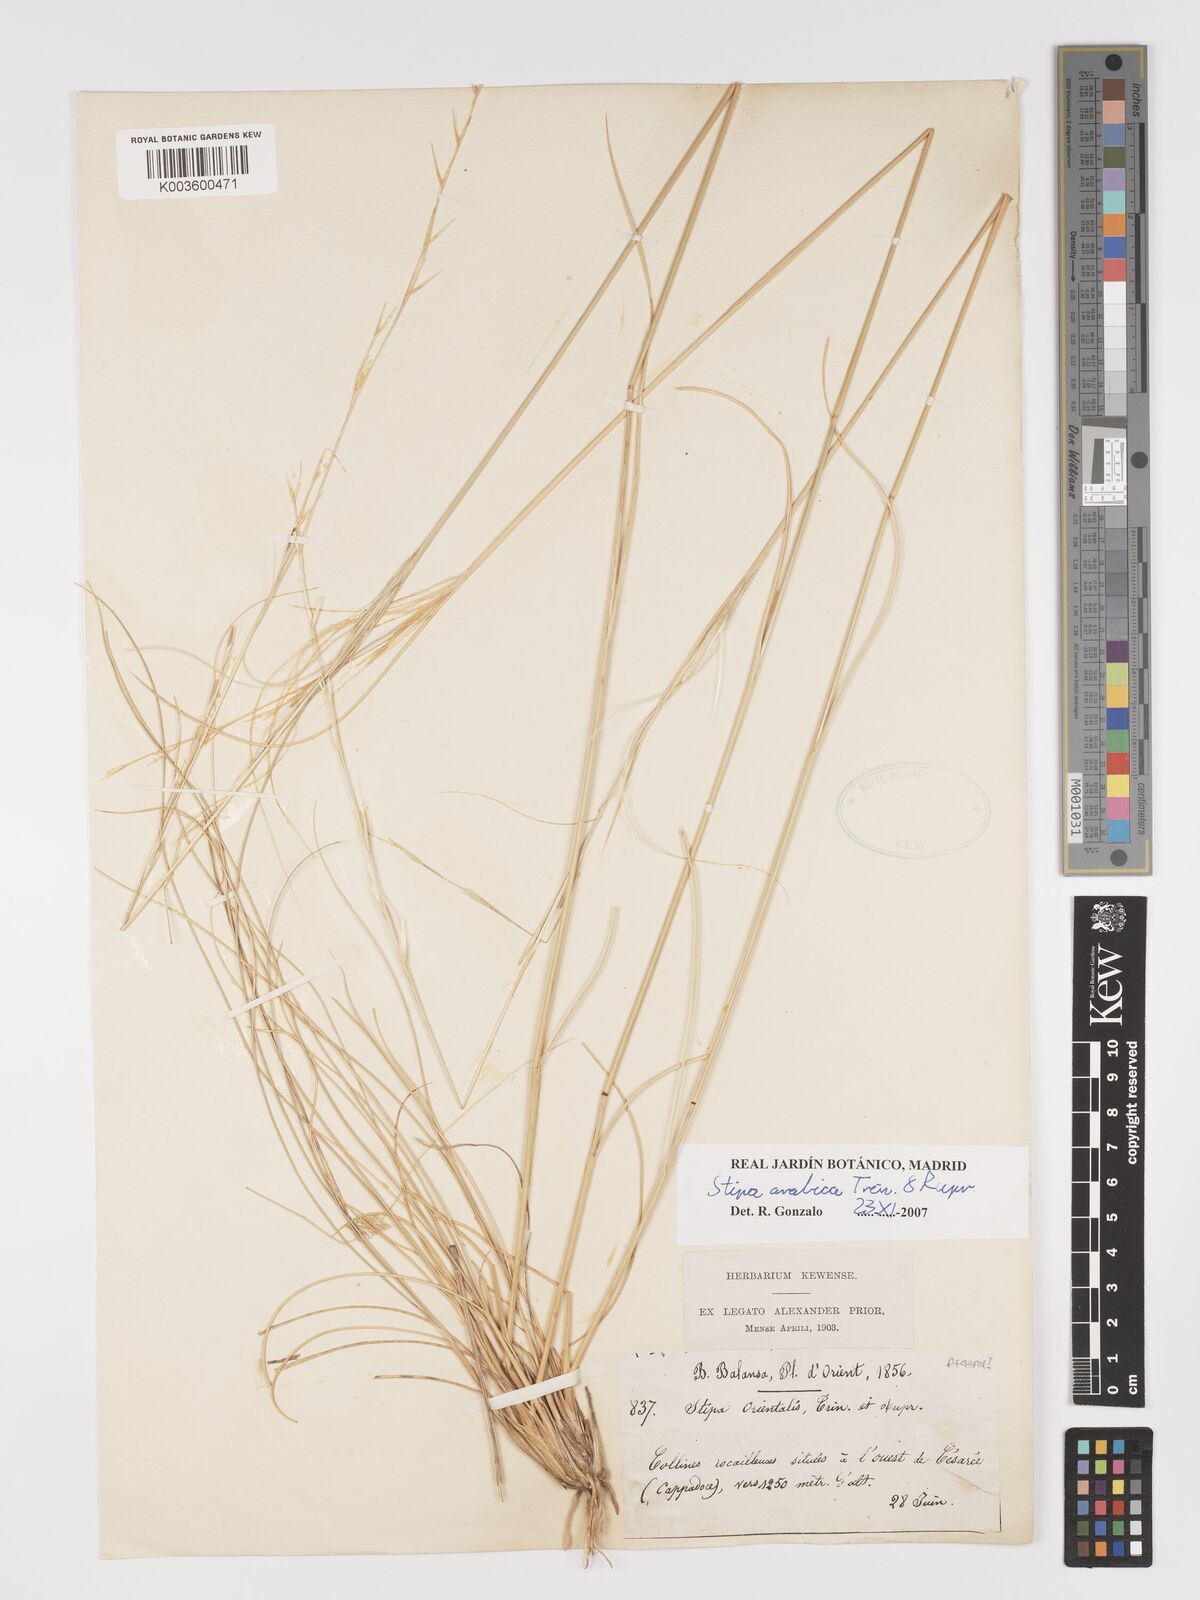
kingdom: Plantae
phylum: Tracheophyta
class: Liliopsida
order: Poales
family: Poaceae
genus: Stipa
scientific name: Stipa arabica
